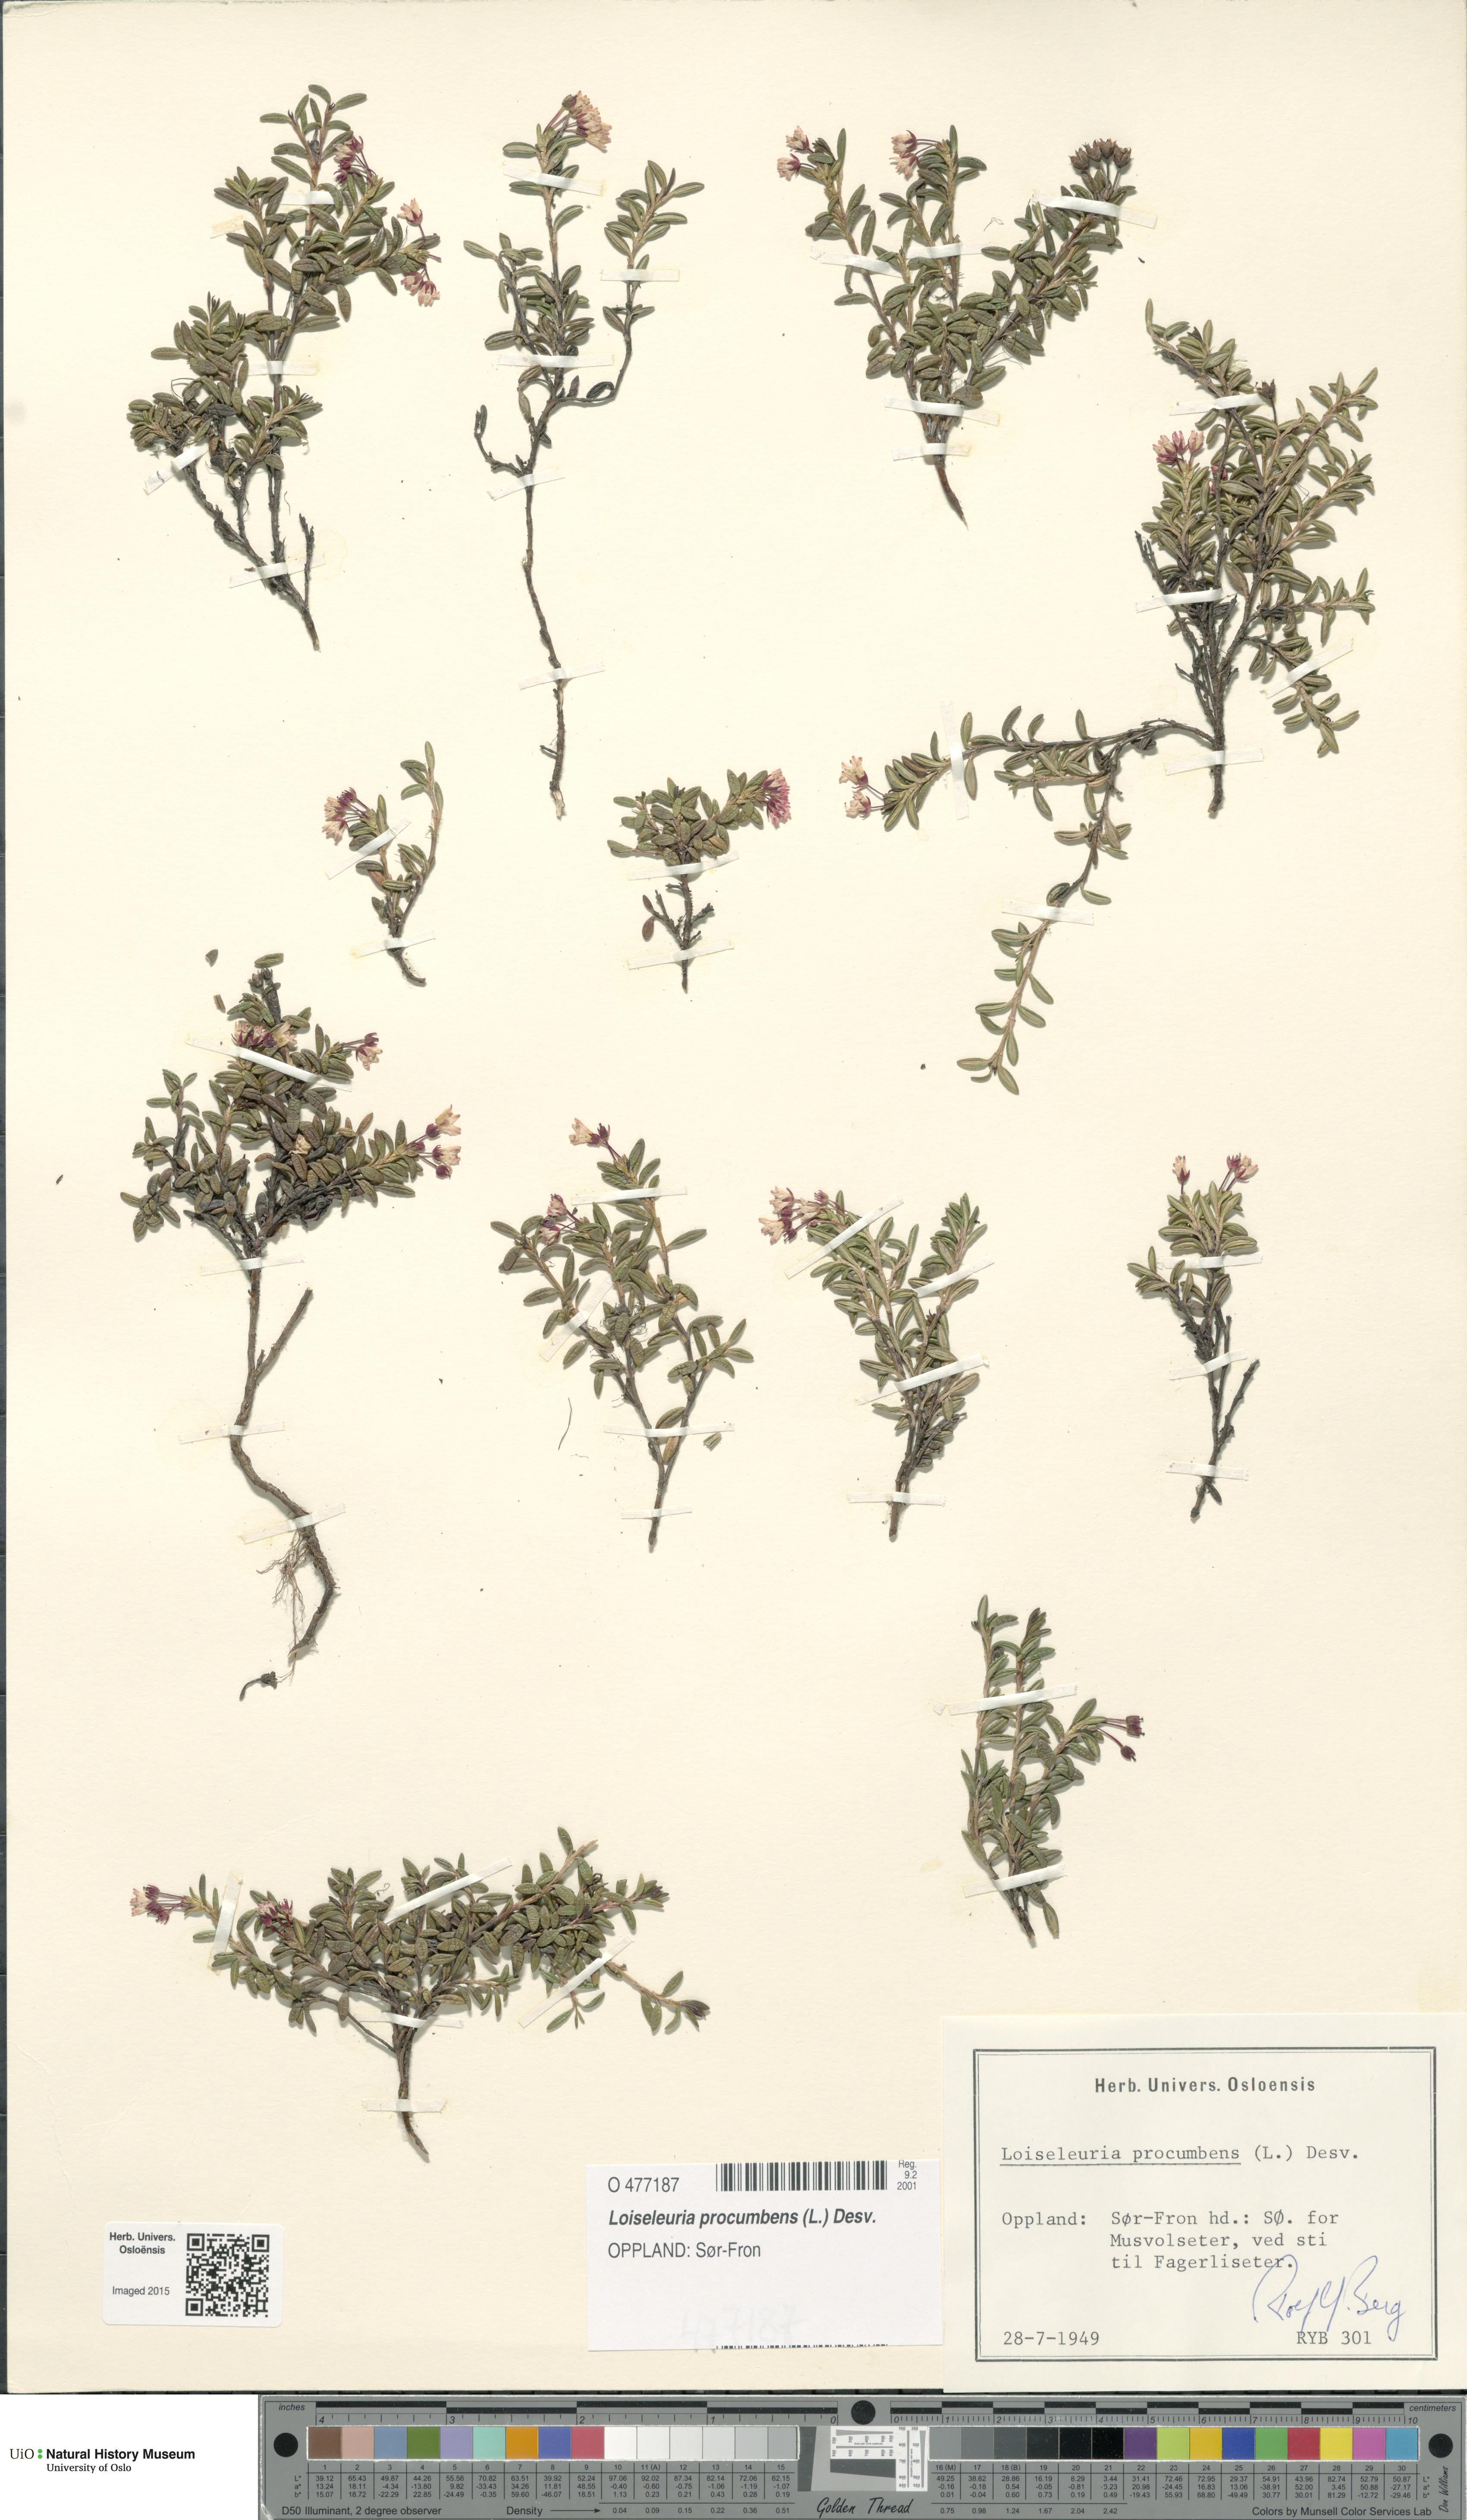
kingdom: Plantae
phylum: Tracheophyta
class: Magnoliopsida
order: Ericales
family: Ericaceae
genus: Kalmia
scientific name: Kalmia procumbens
